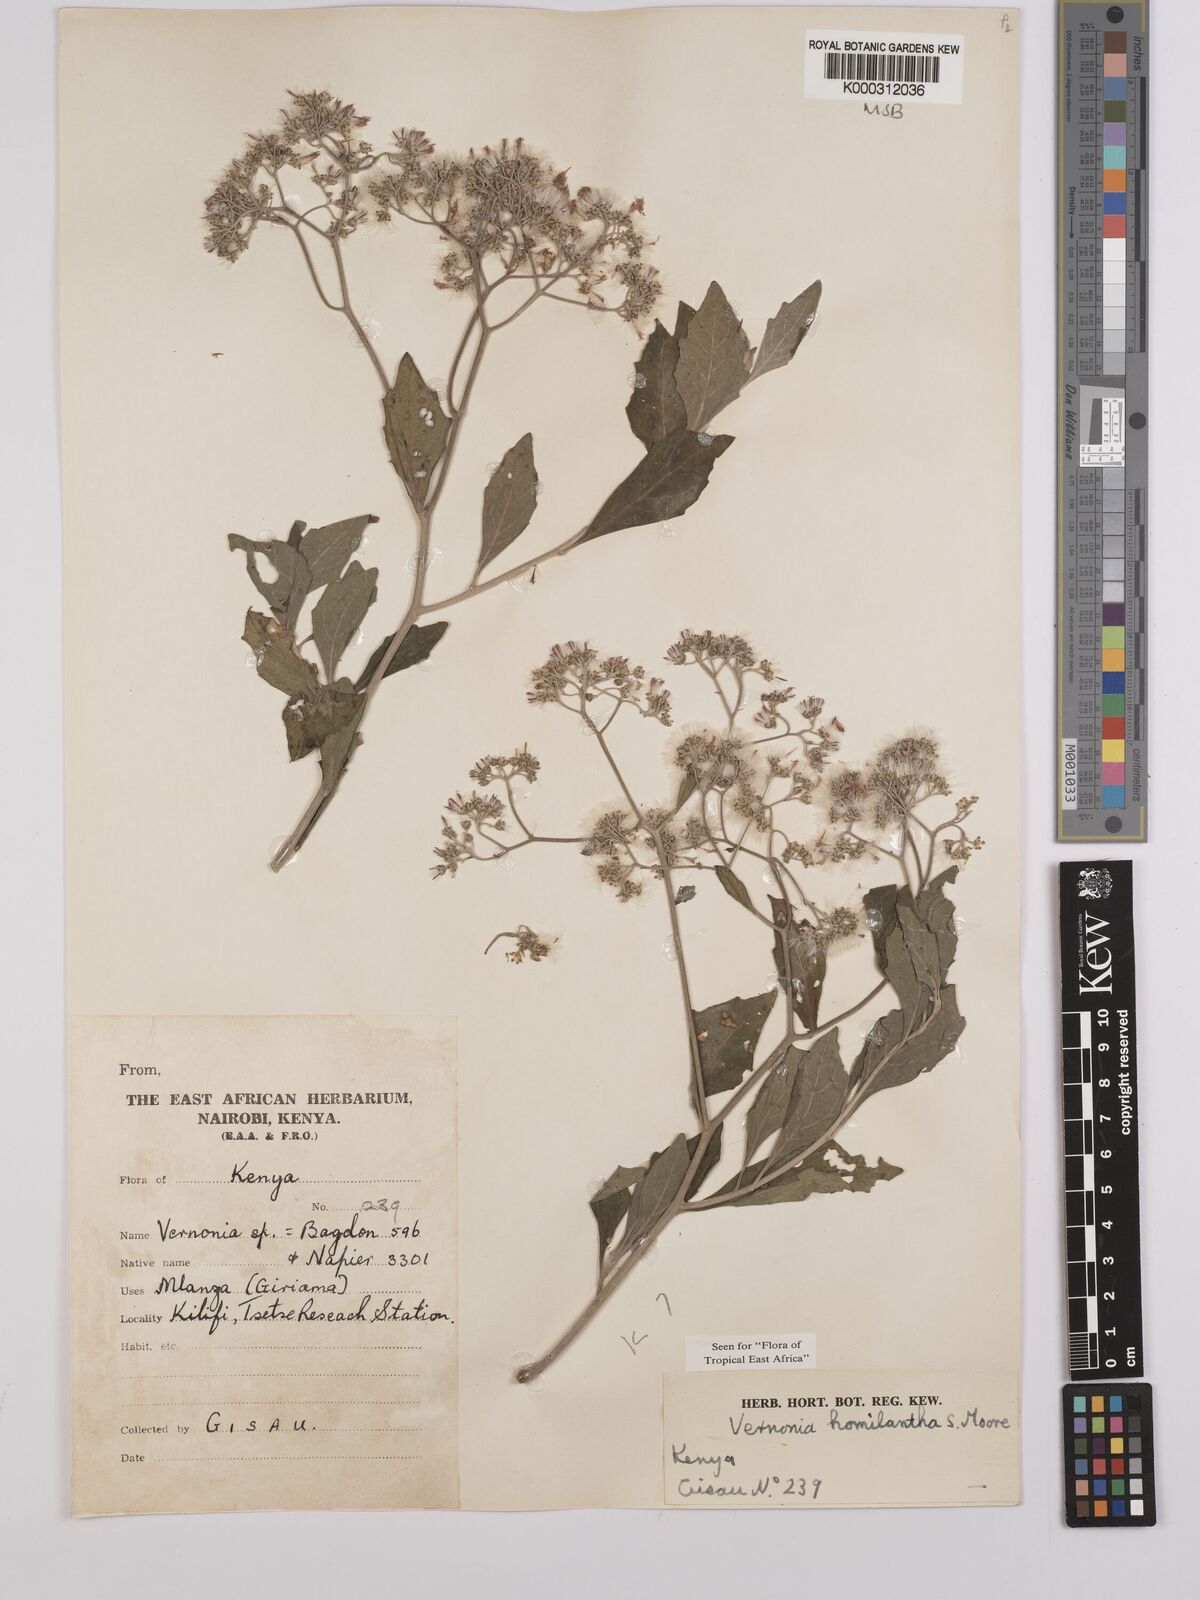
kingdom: Plantae
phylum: Tracheophyta
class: Magnoliopsida
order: Asterales
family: Asteraceae
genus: Orbivestus
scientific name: Orbivestus homilanthus
